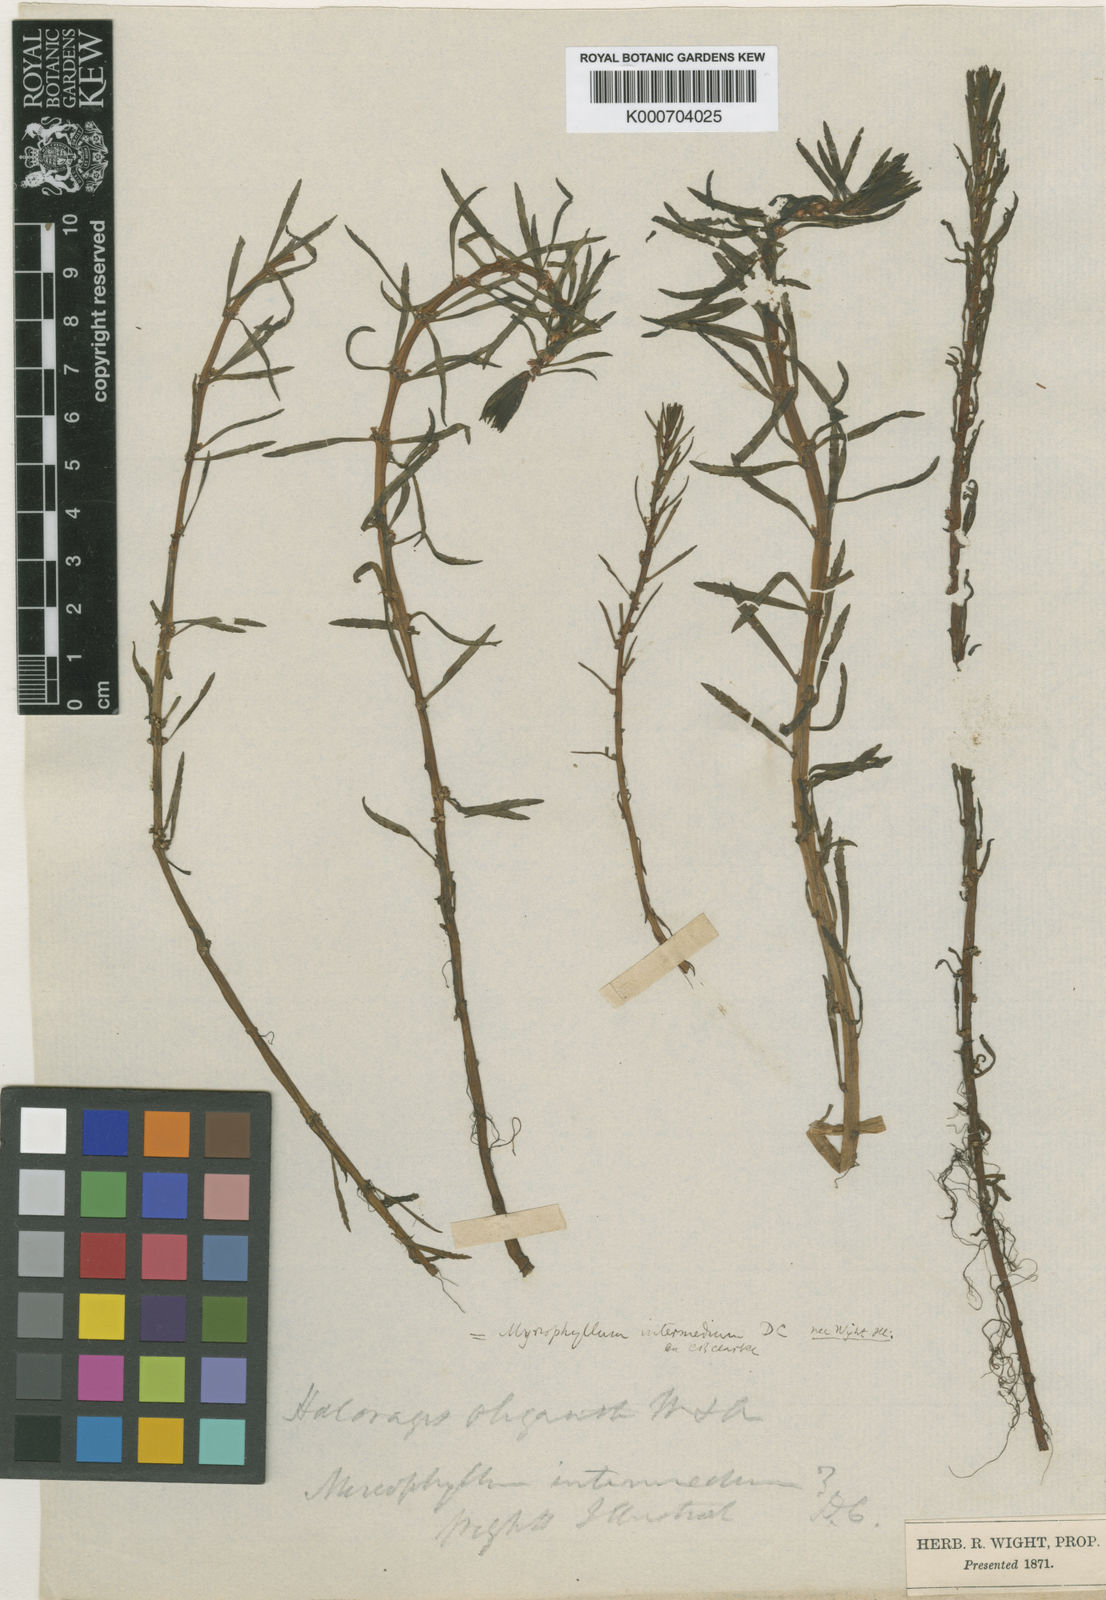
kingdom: Plantae
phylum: Tracheophyta
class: Magnoliopsida
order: Saxifragales
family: Haloragaceae
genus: Myriophyllum
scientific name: Myriophyllum oliganthum
